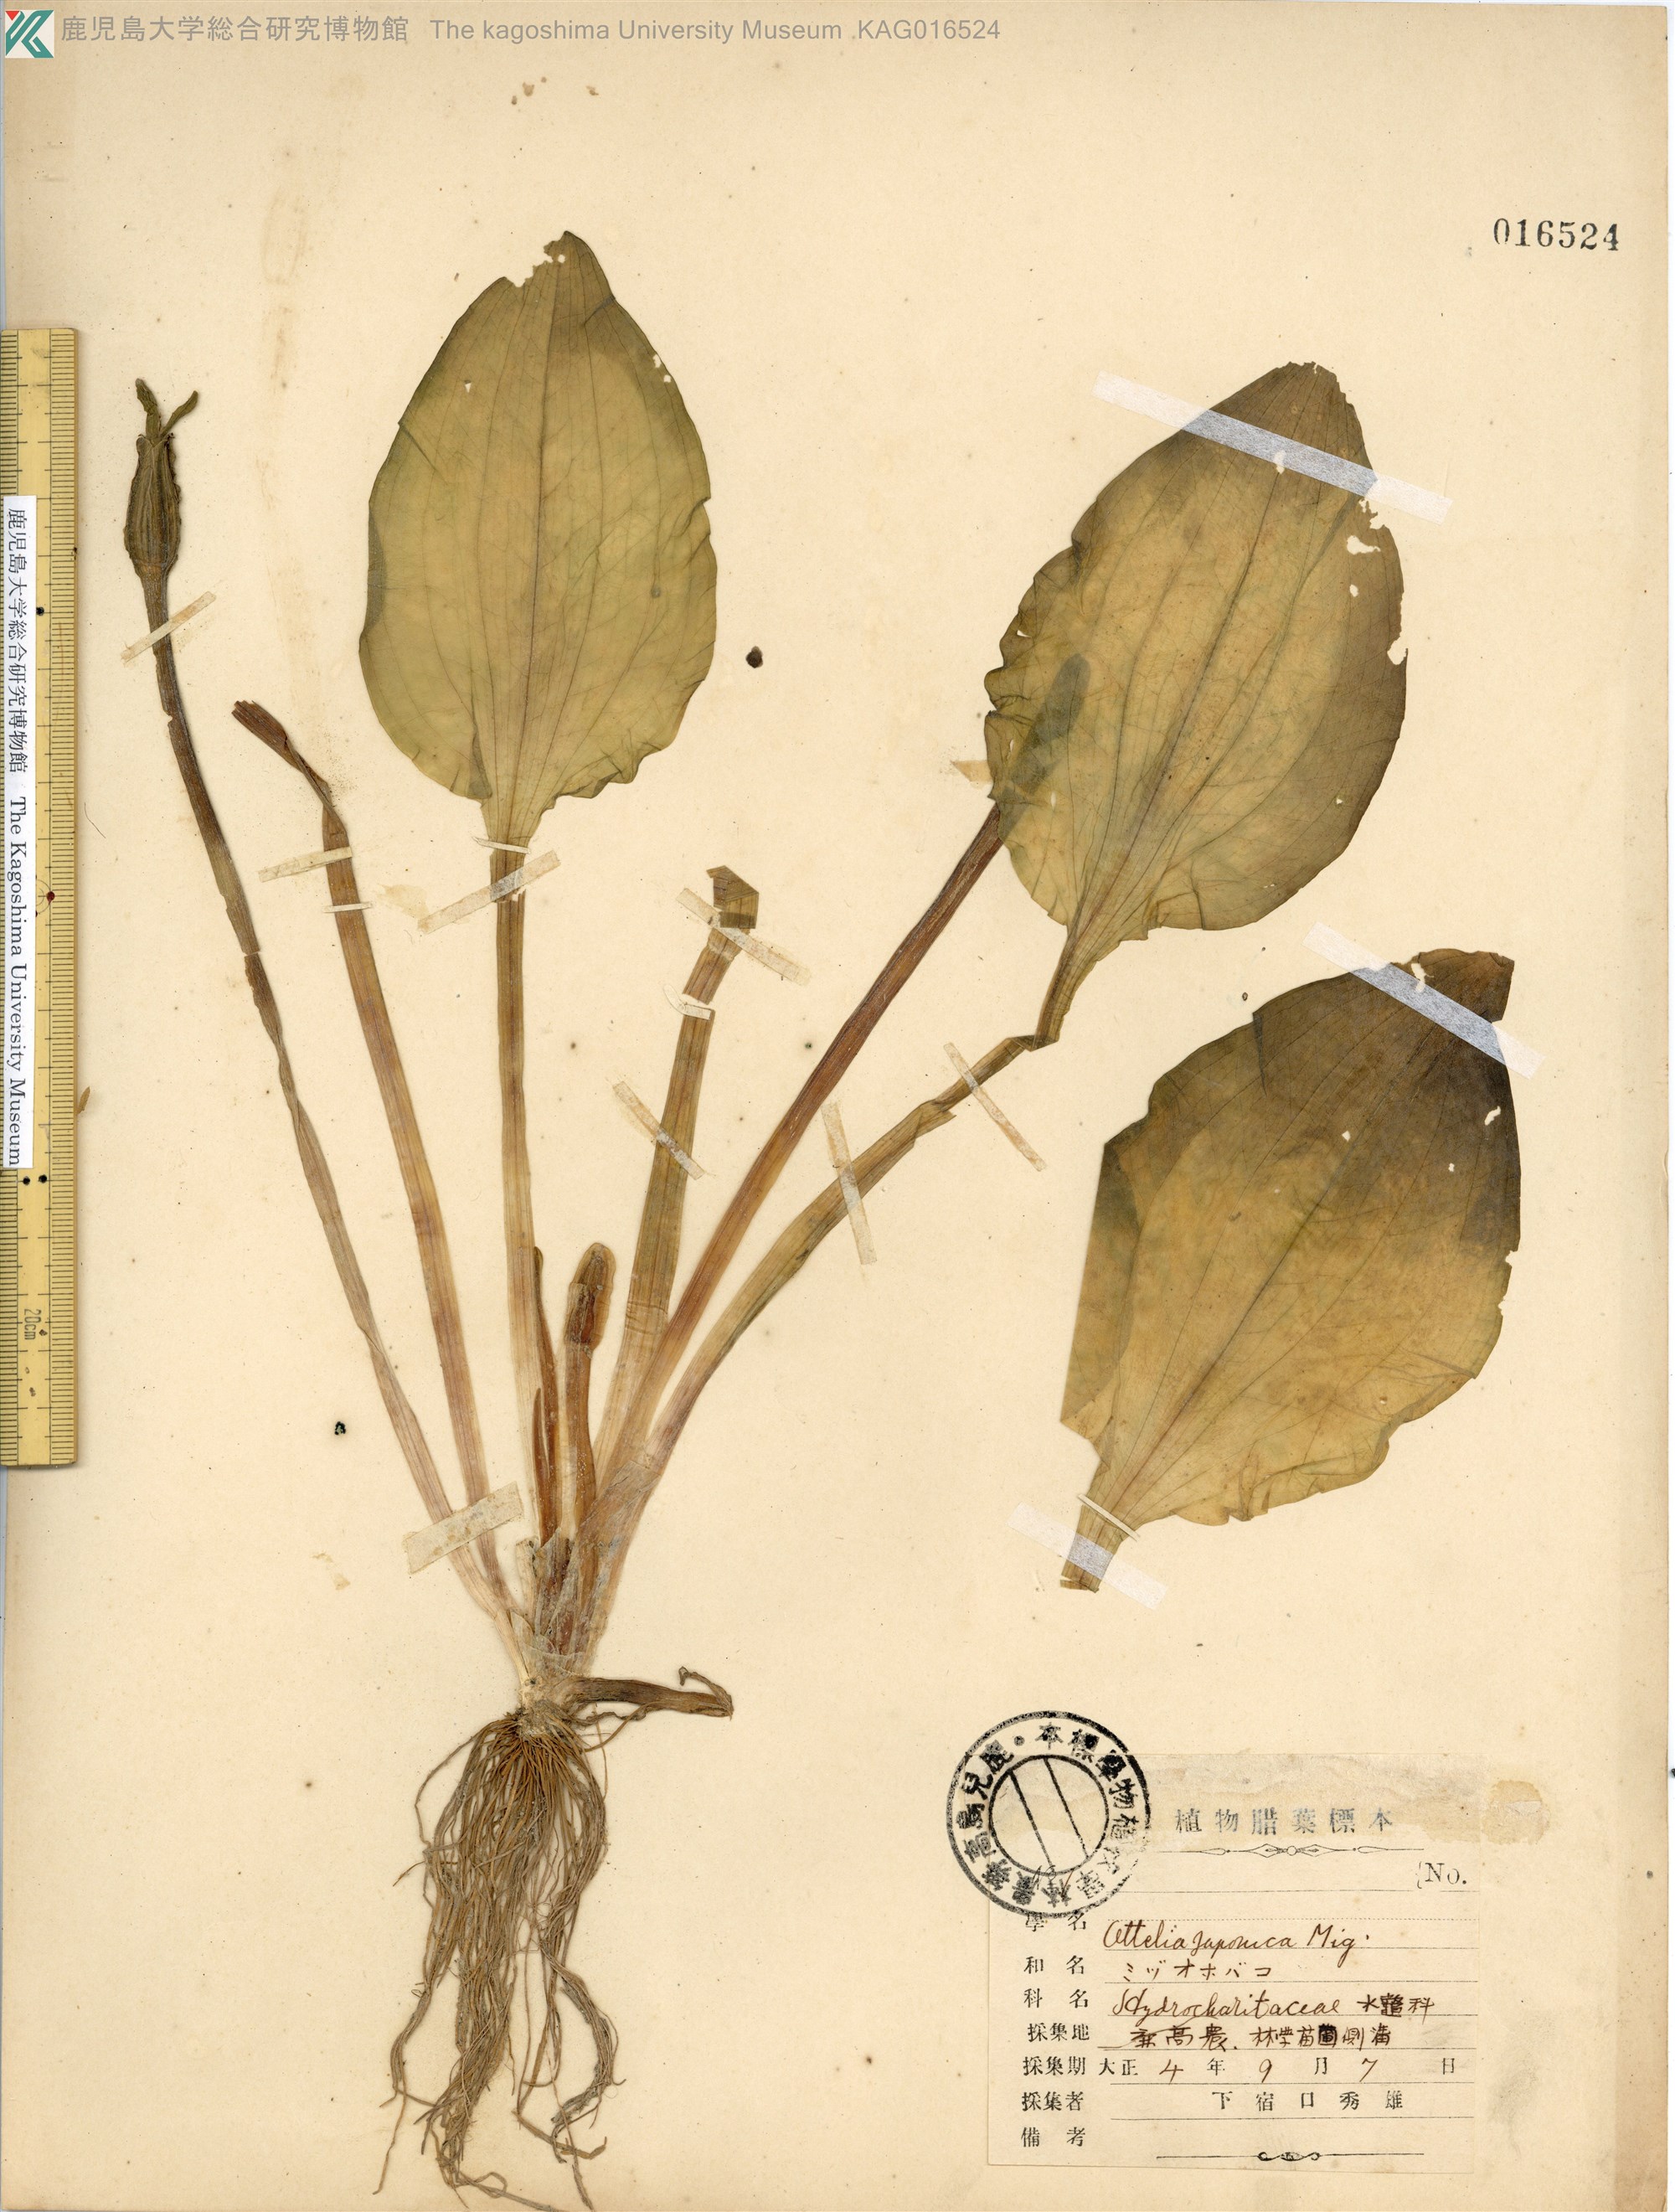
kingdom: Plantae
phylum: Tracheophyta
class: Liliopsida
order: Alismatales
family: Hydrocharitaceae
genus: Ottelia
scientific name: Ottelia alismoides
